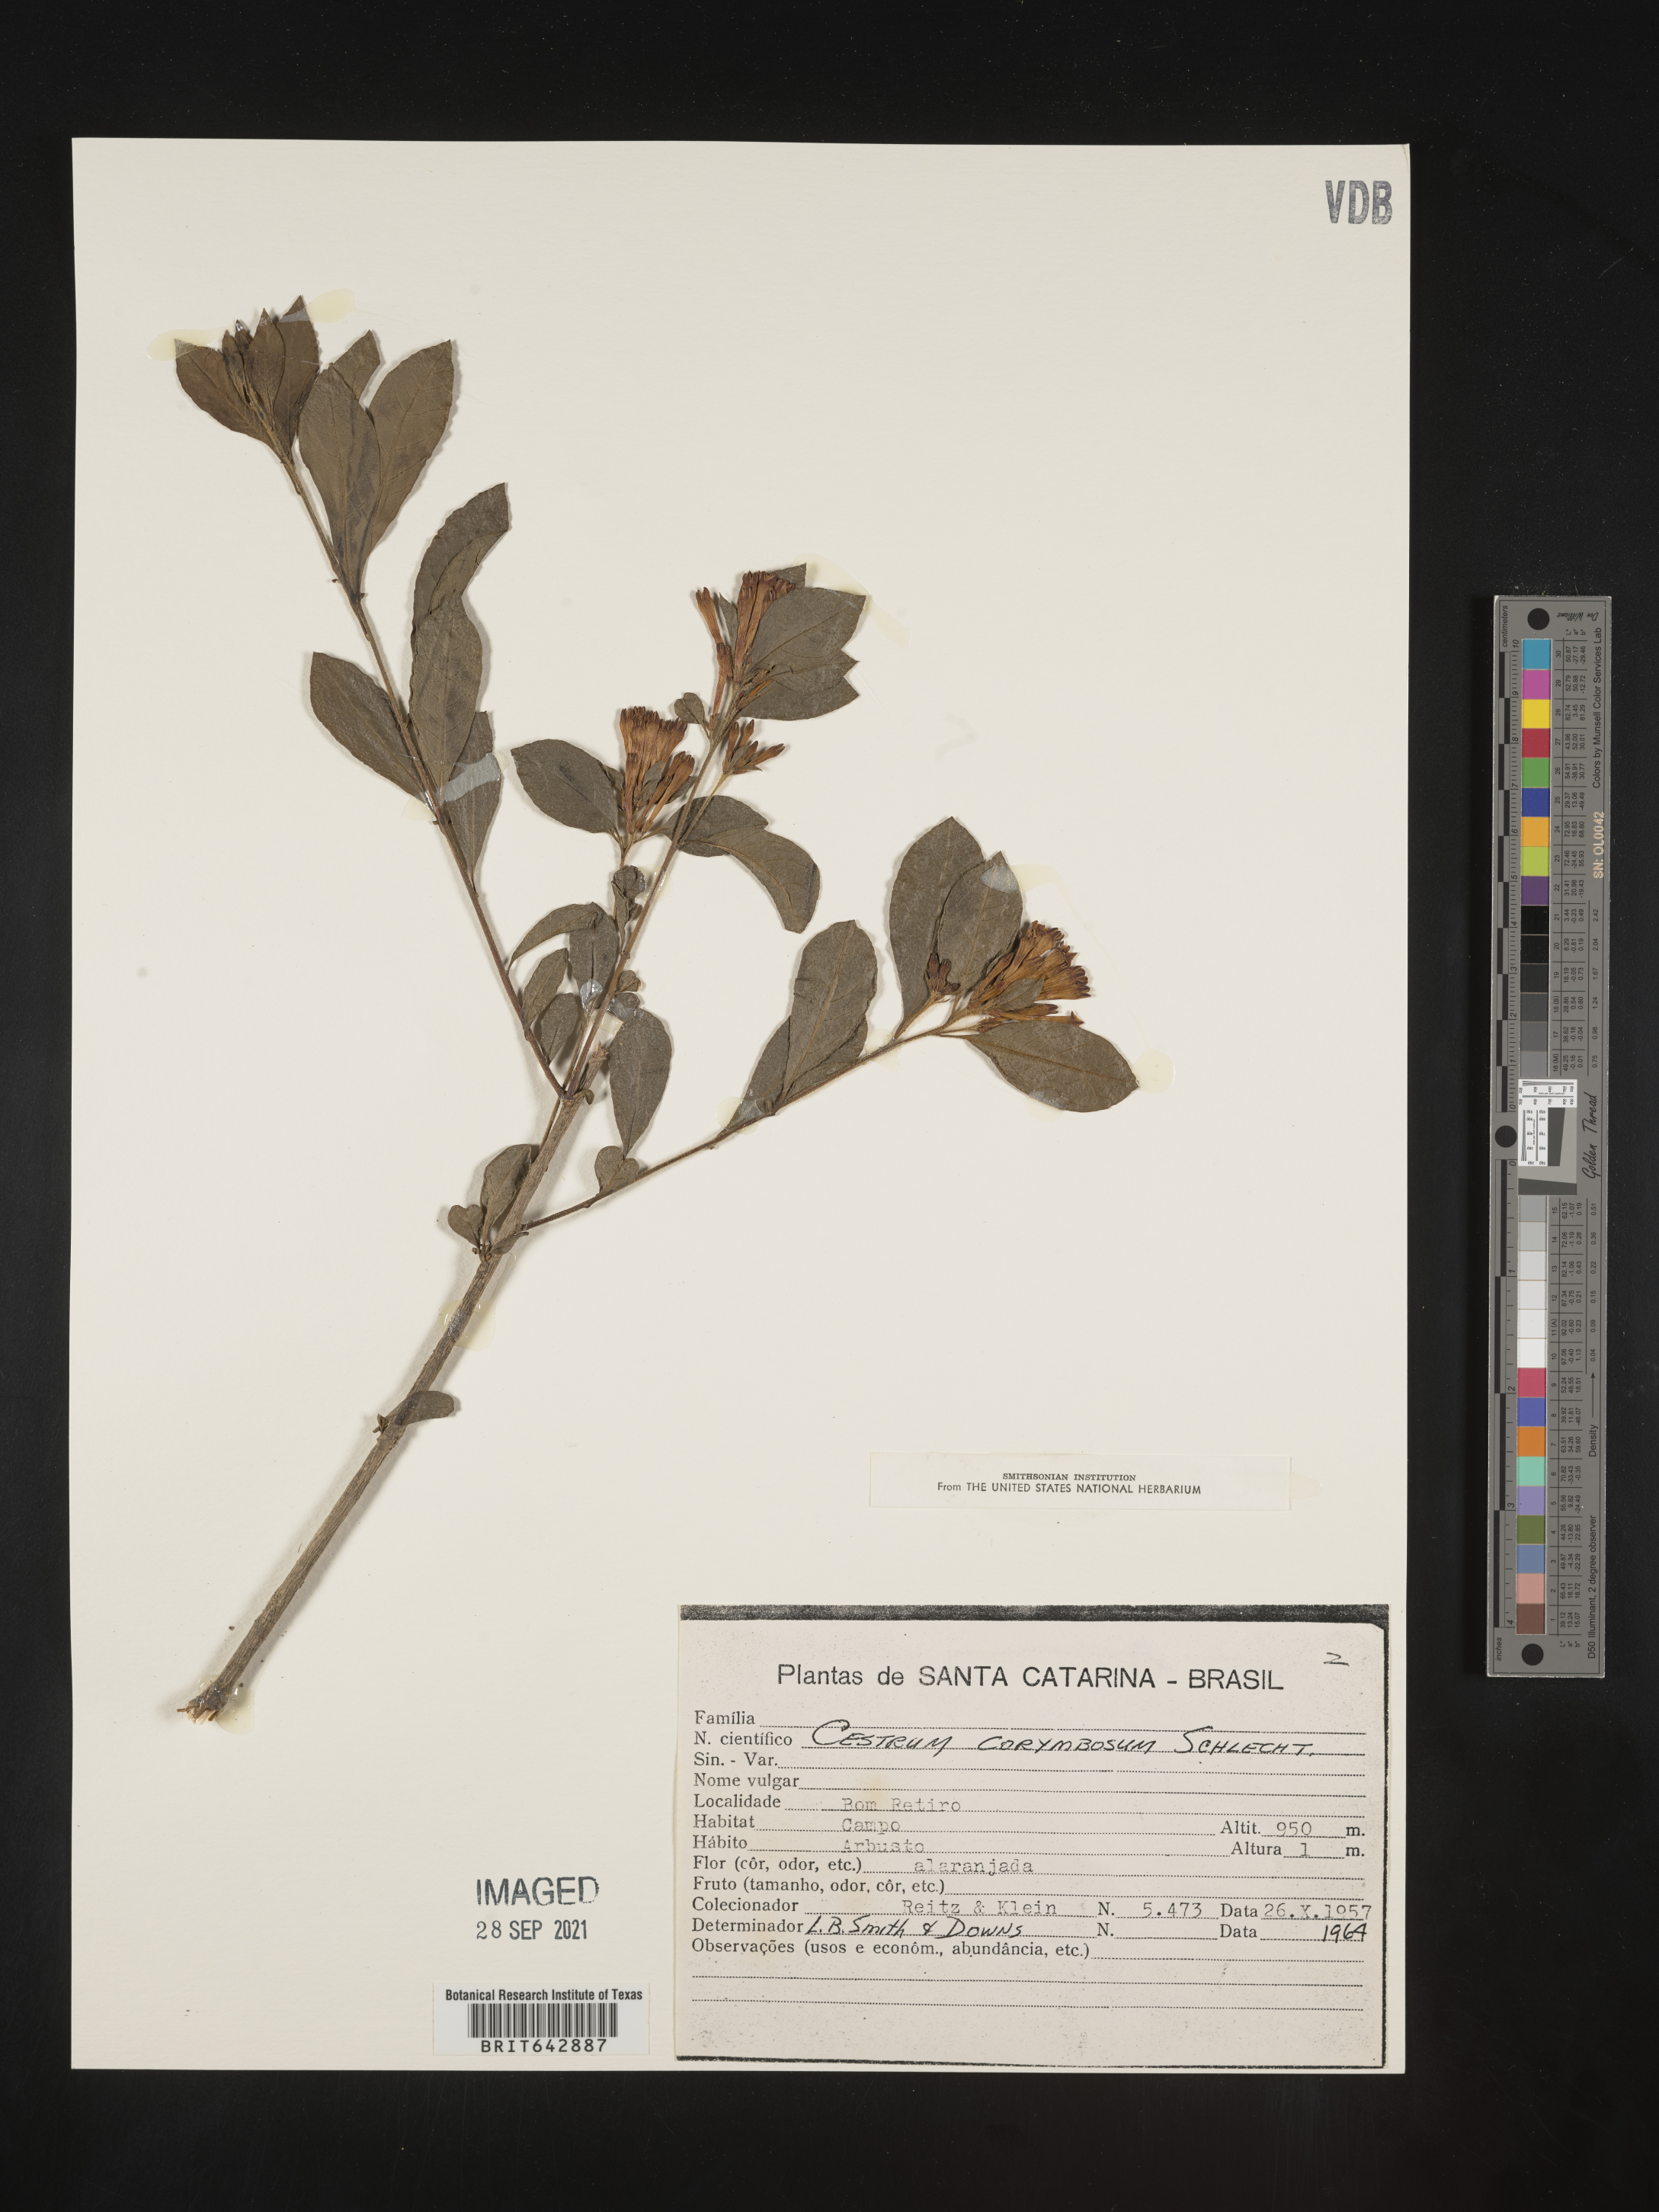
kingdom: Plantae
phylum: Tracheophyta
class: Magnoliopsida
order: Solanales
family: Solanaceae
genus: Cestrum
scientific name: Cestrum
